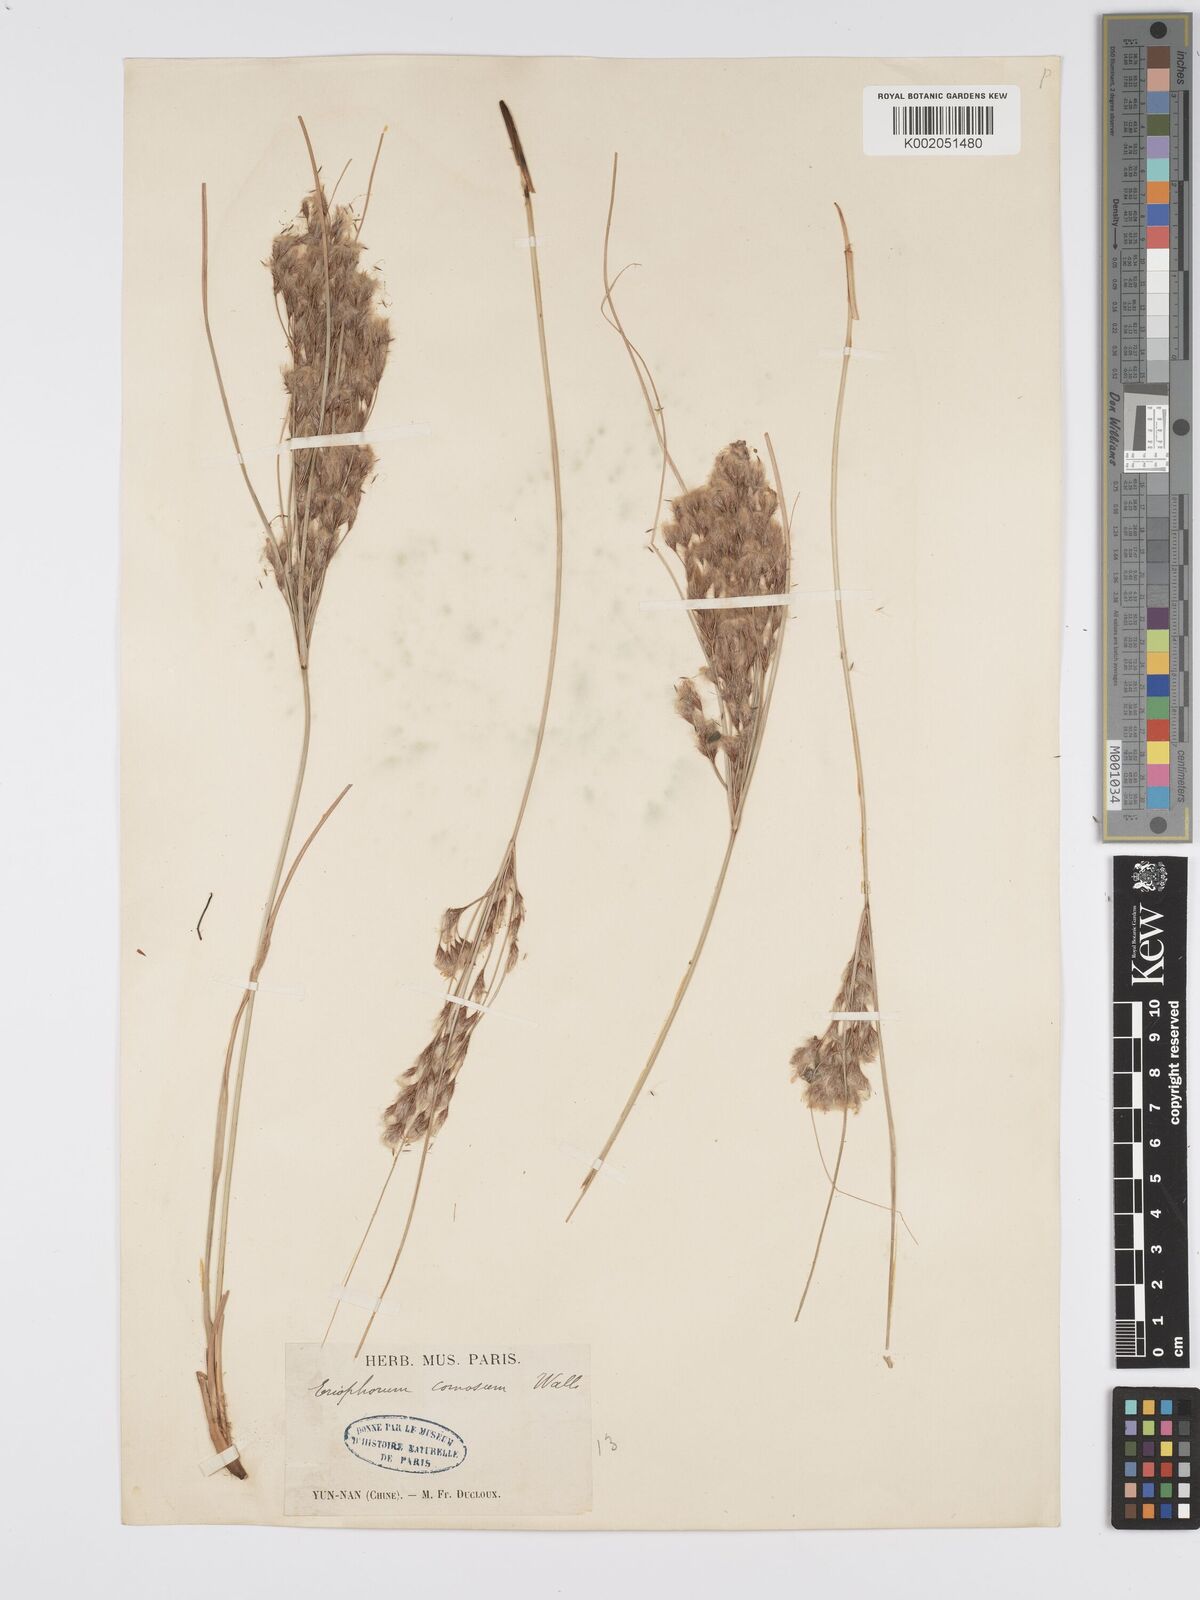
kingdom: Plantae
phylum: Tracheophyta
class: Liliopsida
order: Poales
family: Cyperaceae
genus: Erioscirpus
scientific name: Erioscirpus comosus
